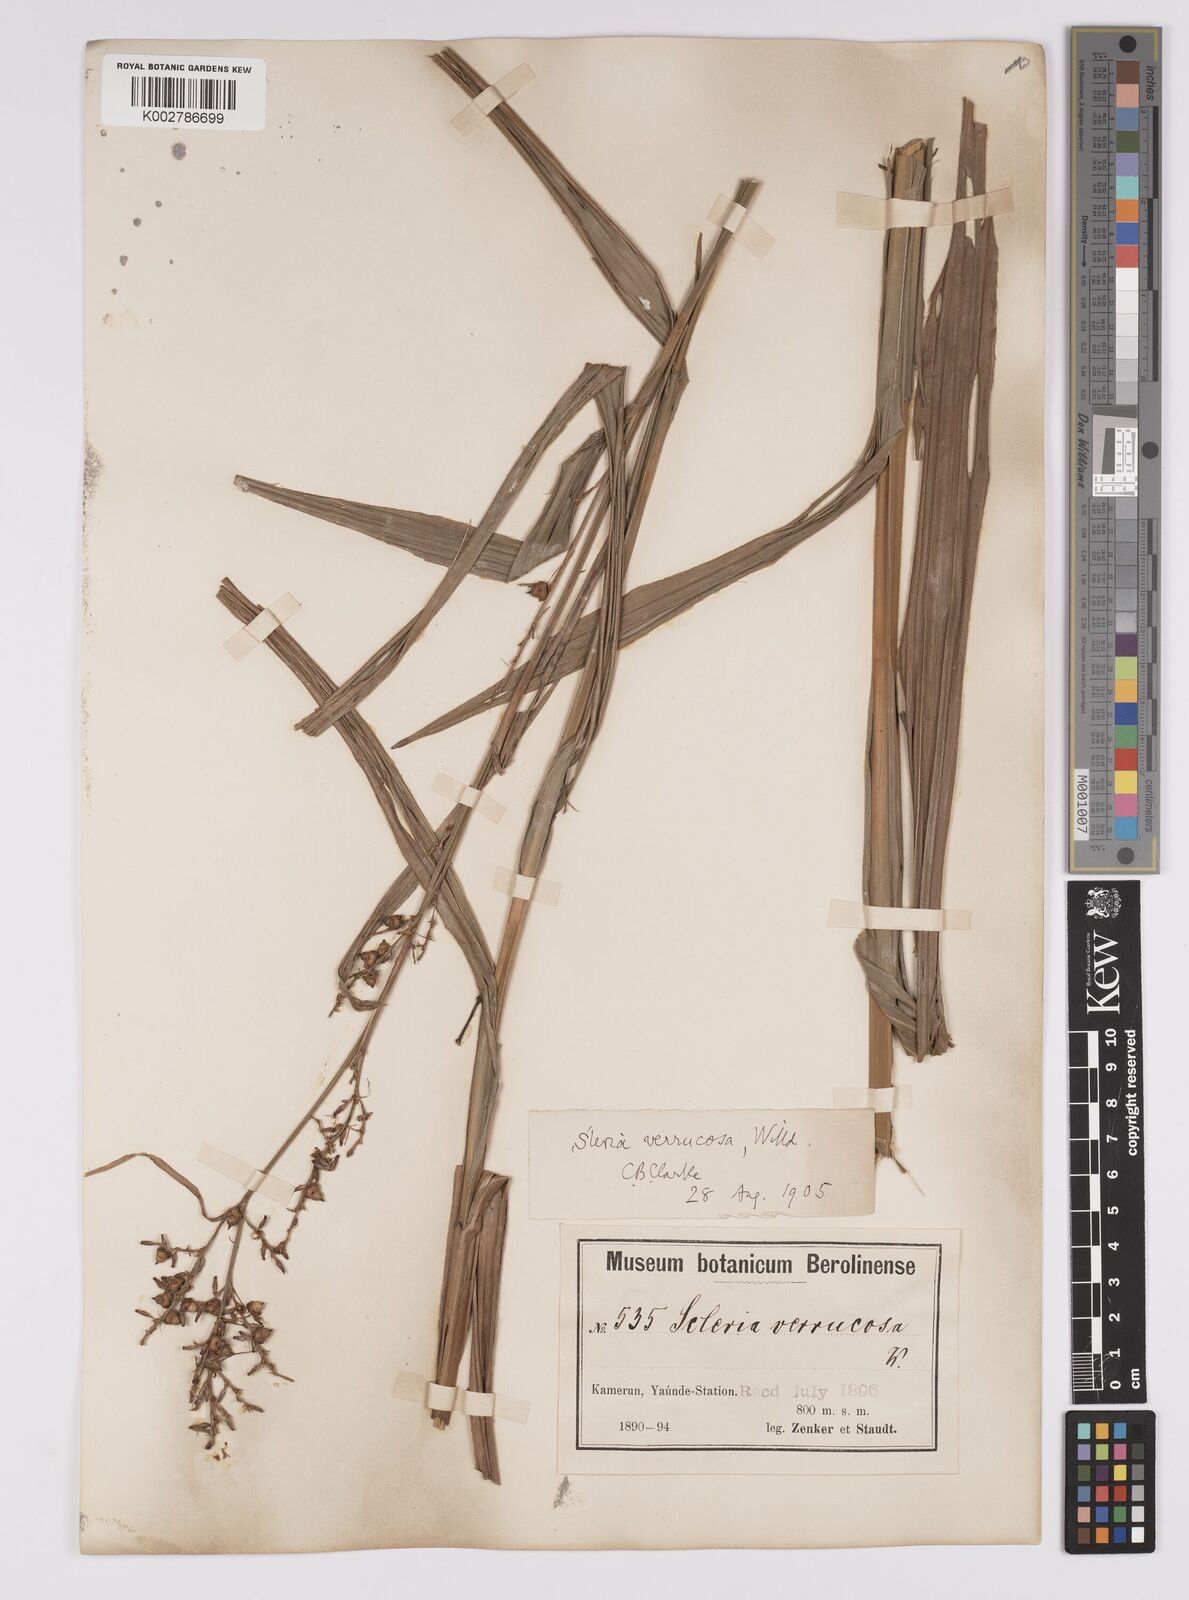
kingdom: Plantae
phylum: Tracheophyta
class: Liliopsida
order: Poales
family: Cyperaceae
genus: Scleria
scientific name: Scleria verrucosa
